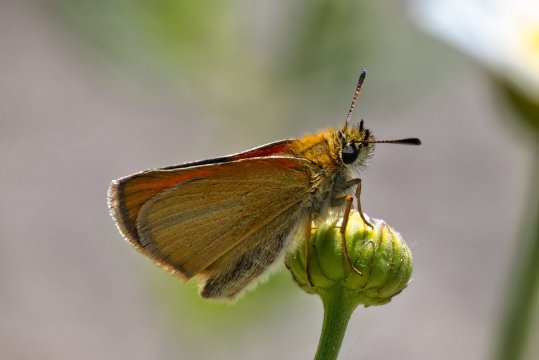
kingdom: Animalia
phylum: Arthropoda
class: Insecta
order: Lepidoptera
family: Hesperiidae
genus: Thymelicus
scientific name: Thymelicus lineola
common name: European Skipper
